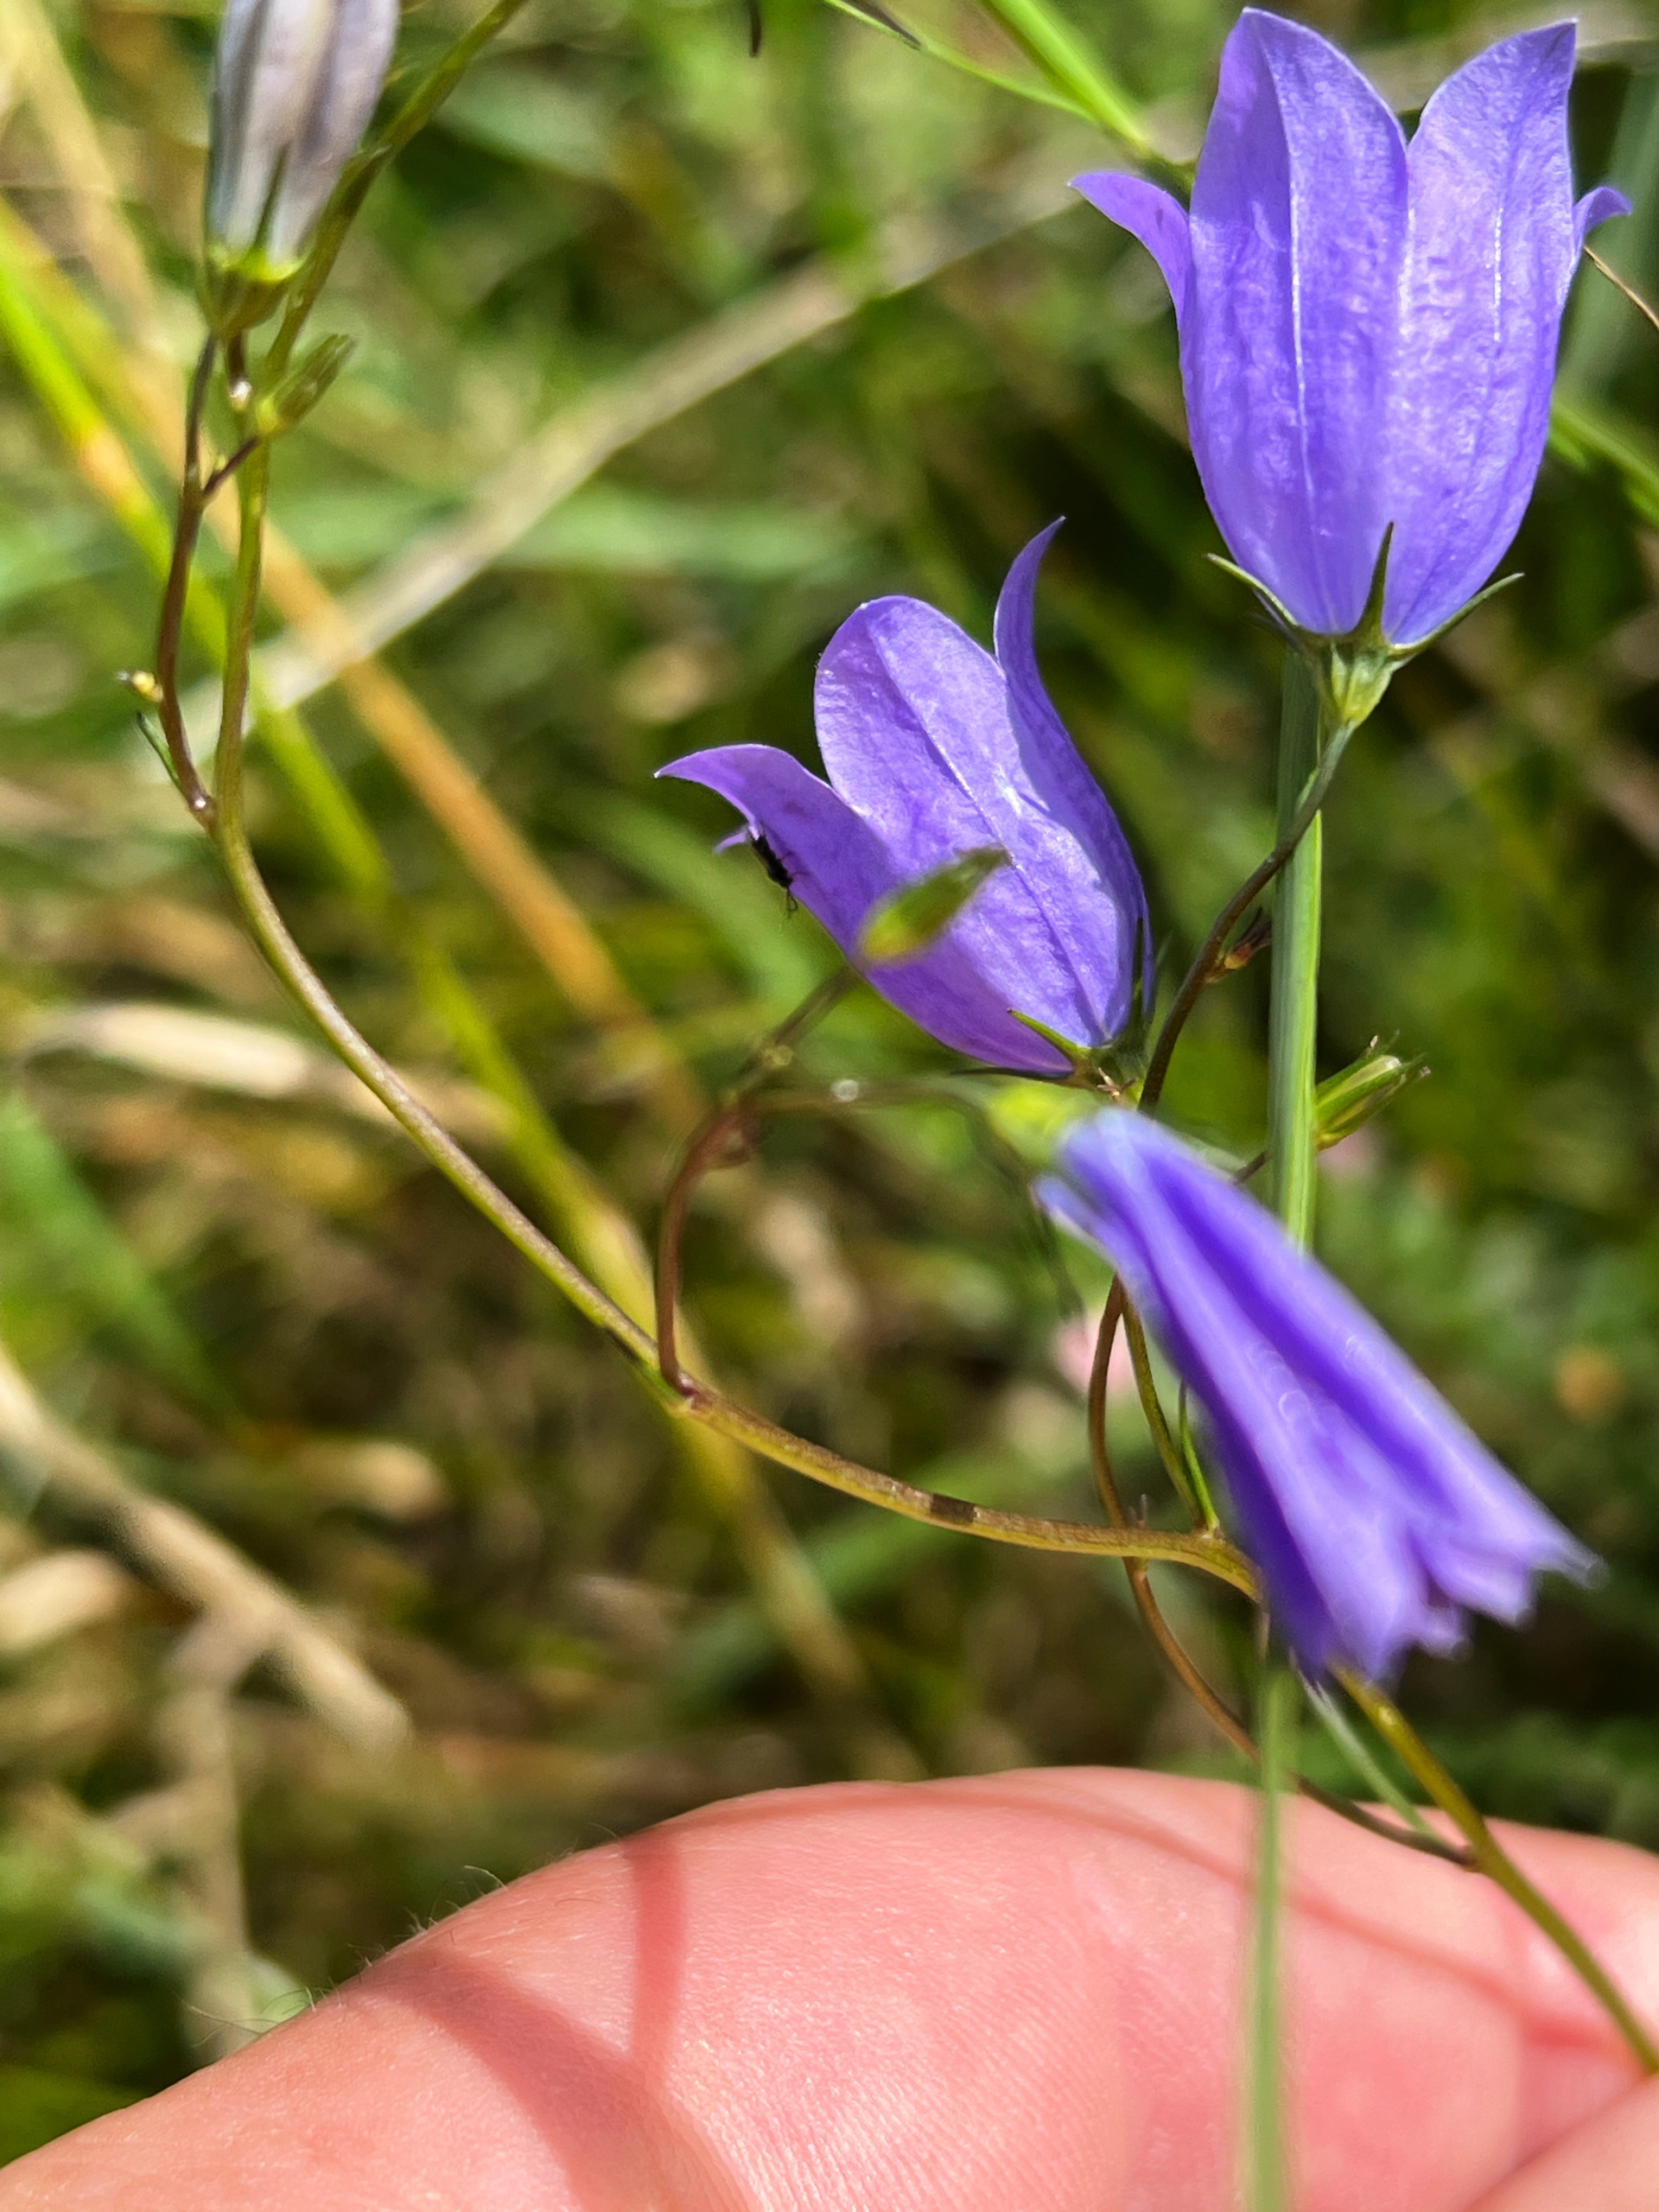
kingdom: Plantae
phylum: Tracheophyta
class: Magnoliopsida
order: Asterales
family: Campanulaceae
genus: Campanula
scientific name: Campanula rotundifolia
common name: Liden klokke
